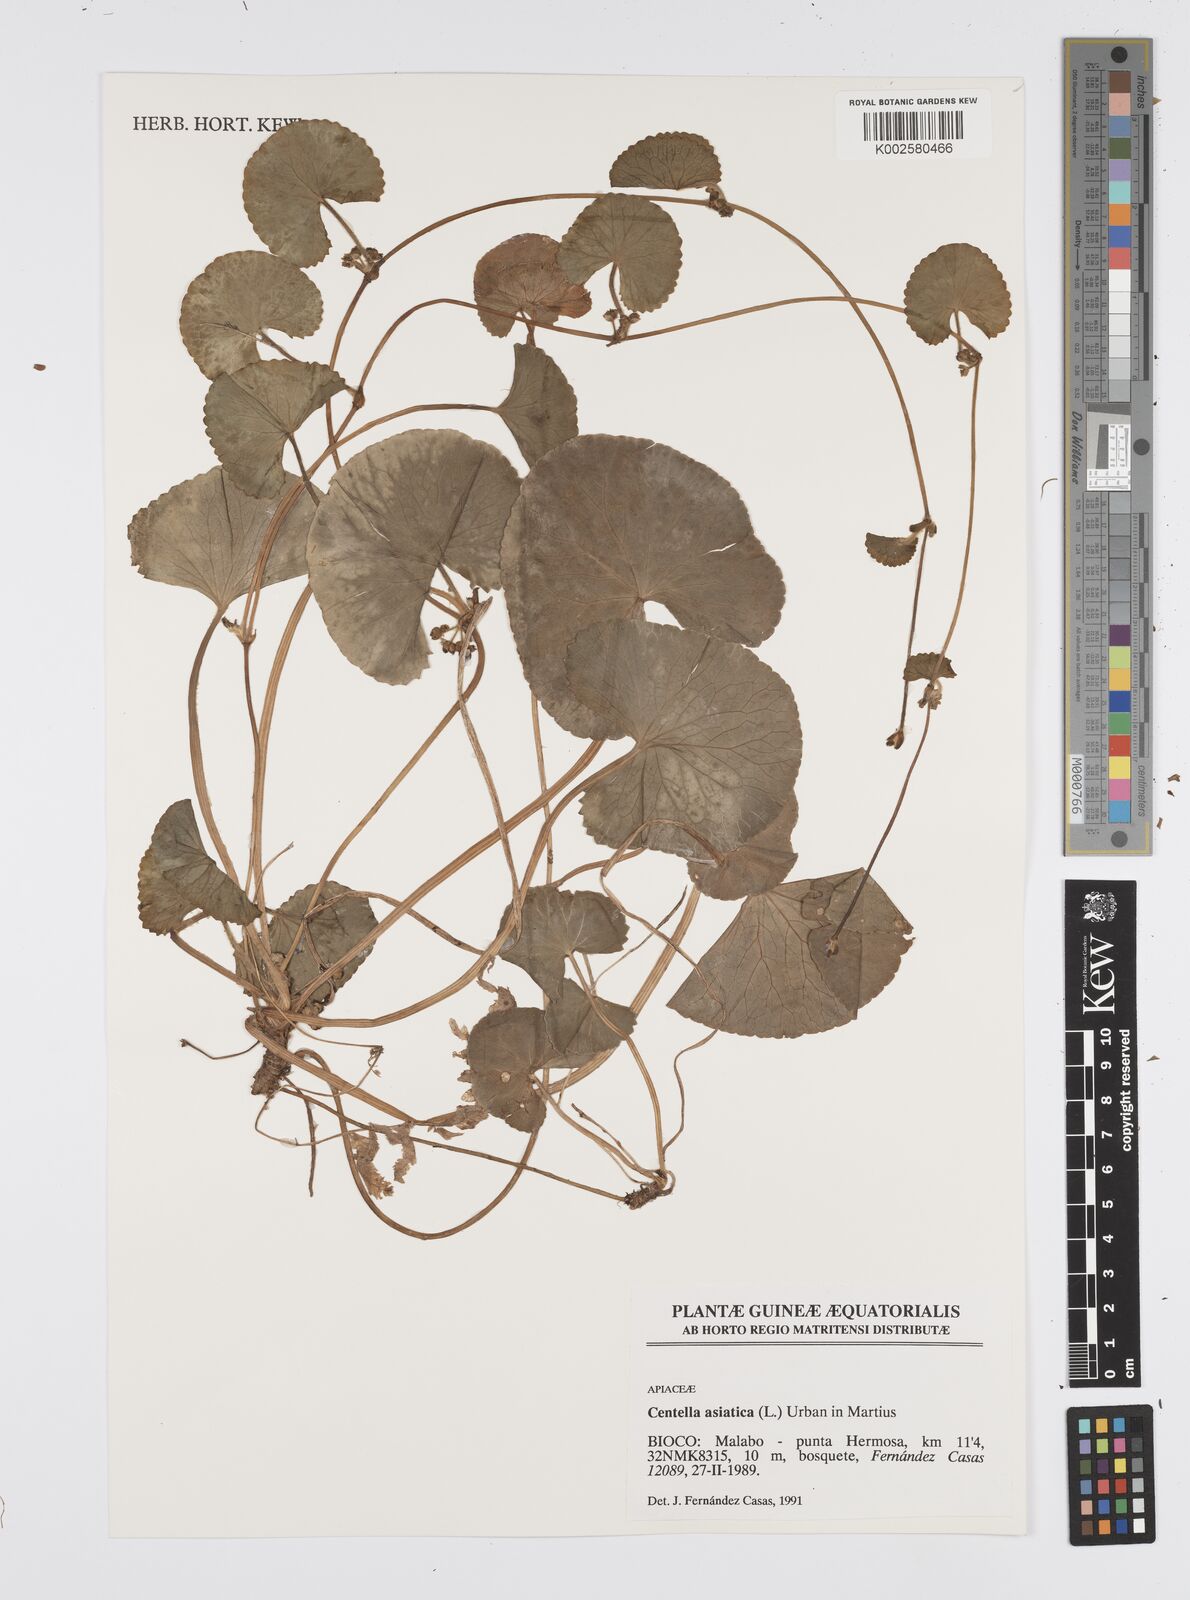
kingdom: Plantae
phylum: Tracheophyta
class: Magnoliopsida
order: Apiales
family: Apiaceae
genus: Centella
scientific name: Centella asiatica
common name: Spadeleaf
